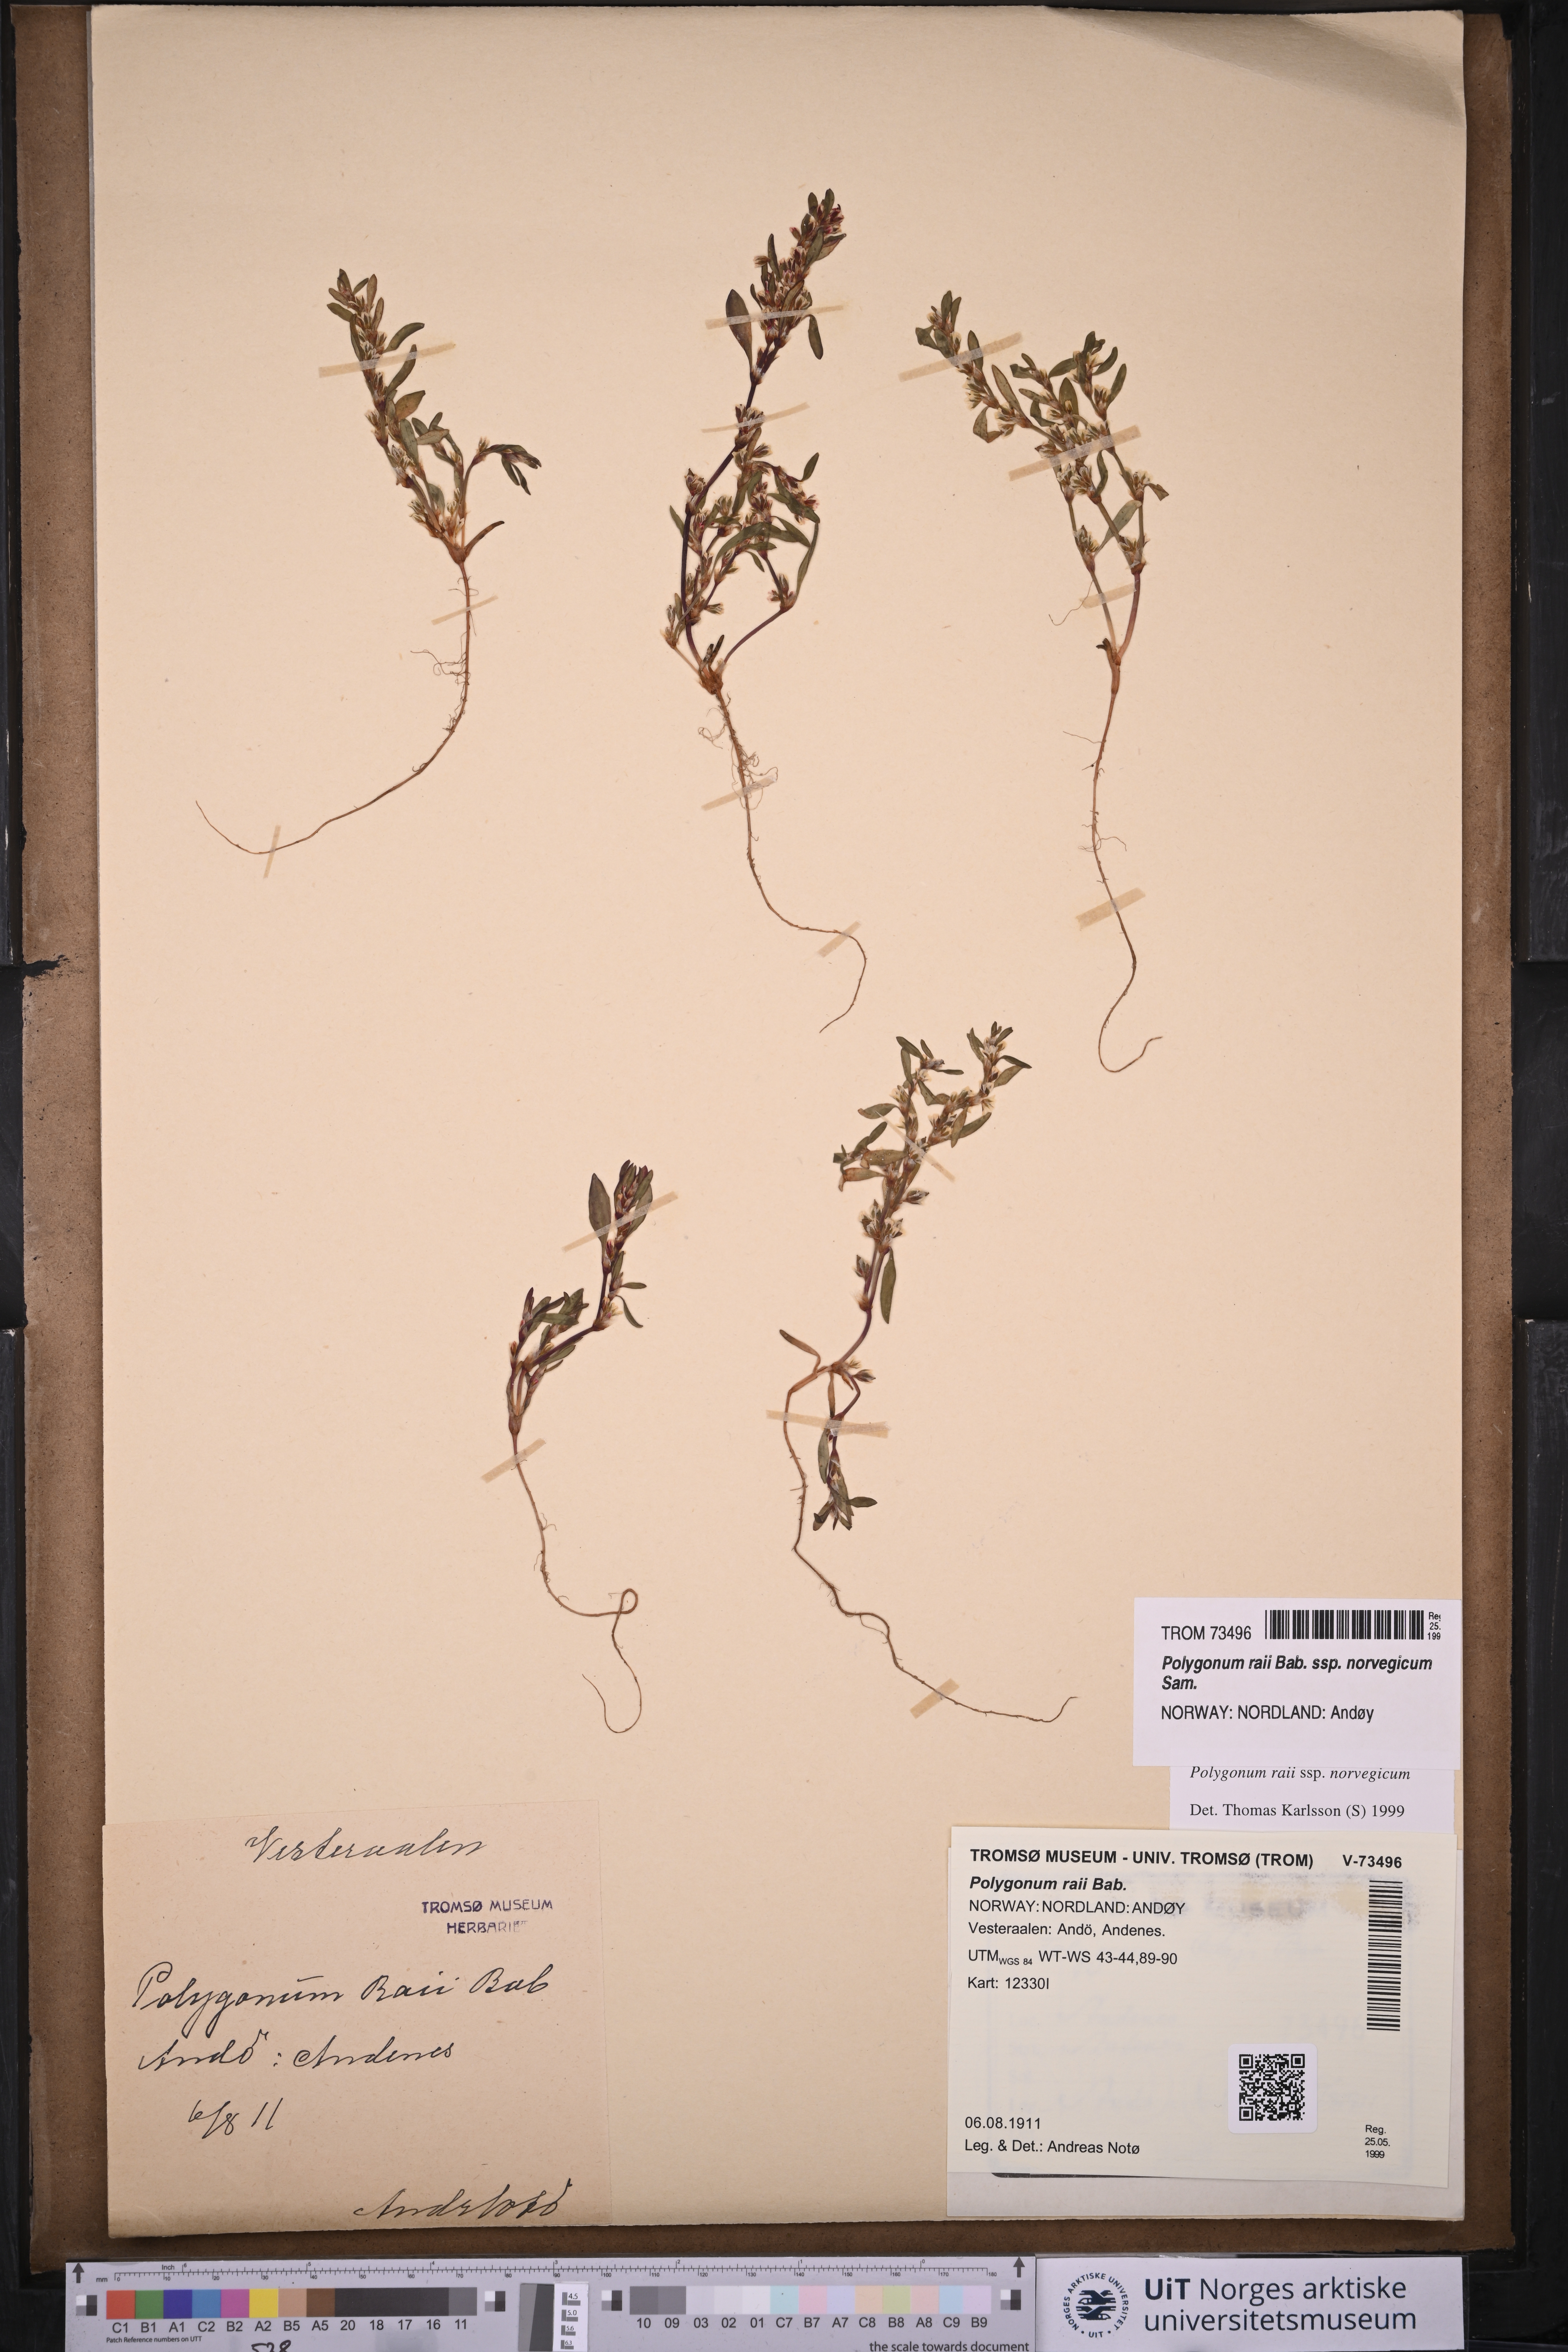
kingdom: Plantae
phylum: Tracheophyta
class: Magnoliopsida
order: Caryophyllales
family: Polygonaceae
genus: Polygonum
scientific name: Polygonum norvegicum
